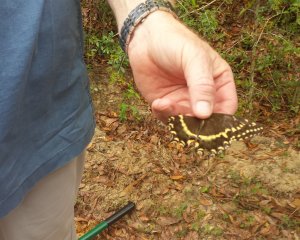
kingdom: Animalia
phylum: Arthropoda
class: Insecta
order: Lepidoptera
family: Papilionidae
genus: Pterourus
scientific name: Pterourus palamedes
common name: Palamedes Swallowtail
